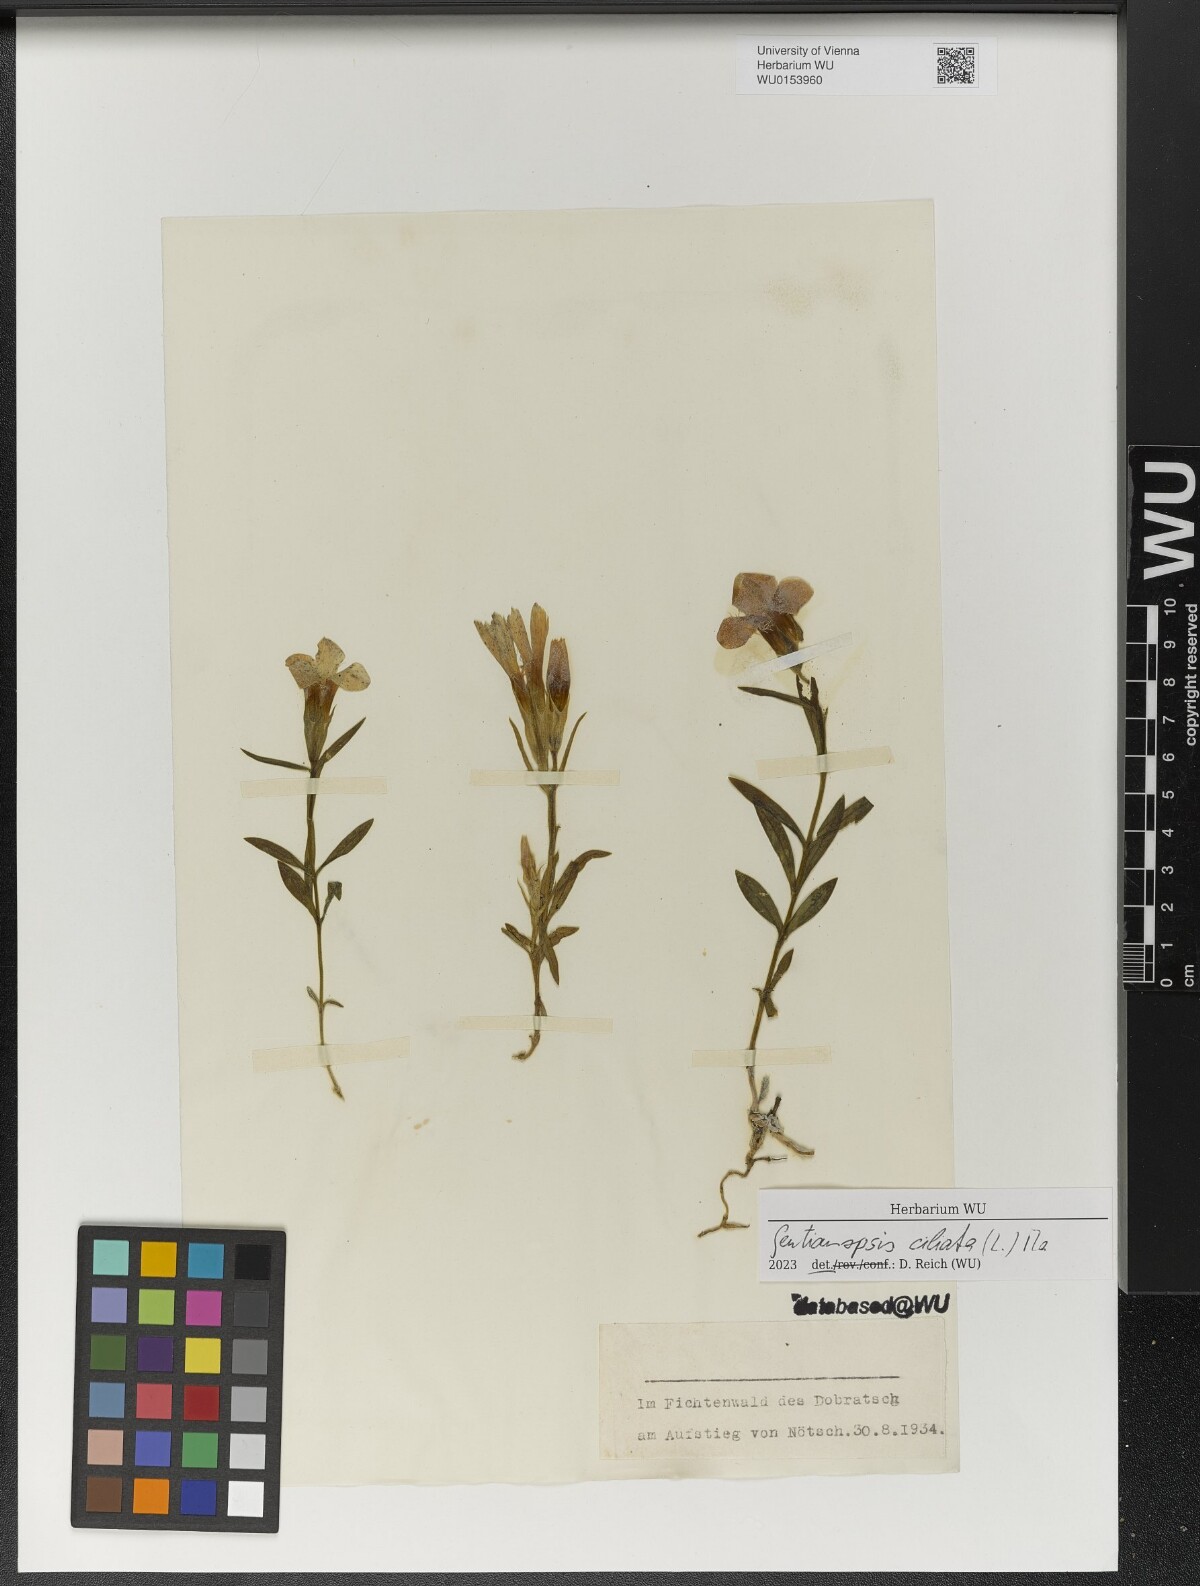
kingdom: Plantae
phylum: Tracheophyta
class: Magnoliopsida
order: Gentianales
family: Gentianaceae
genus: Gentianopsis
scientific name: Gentianopsis ciliata
